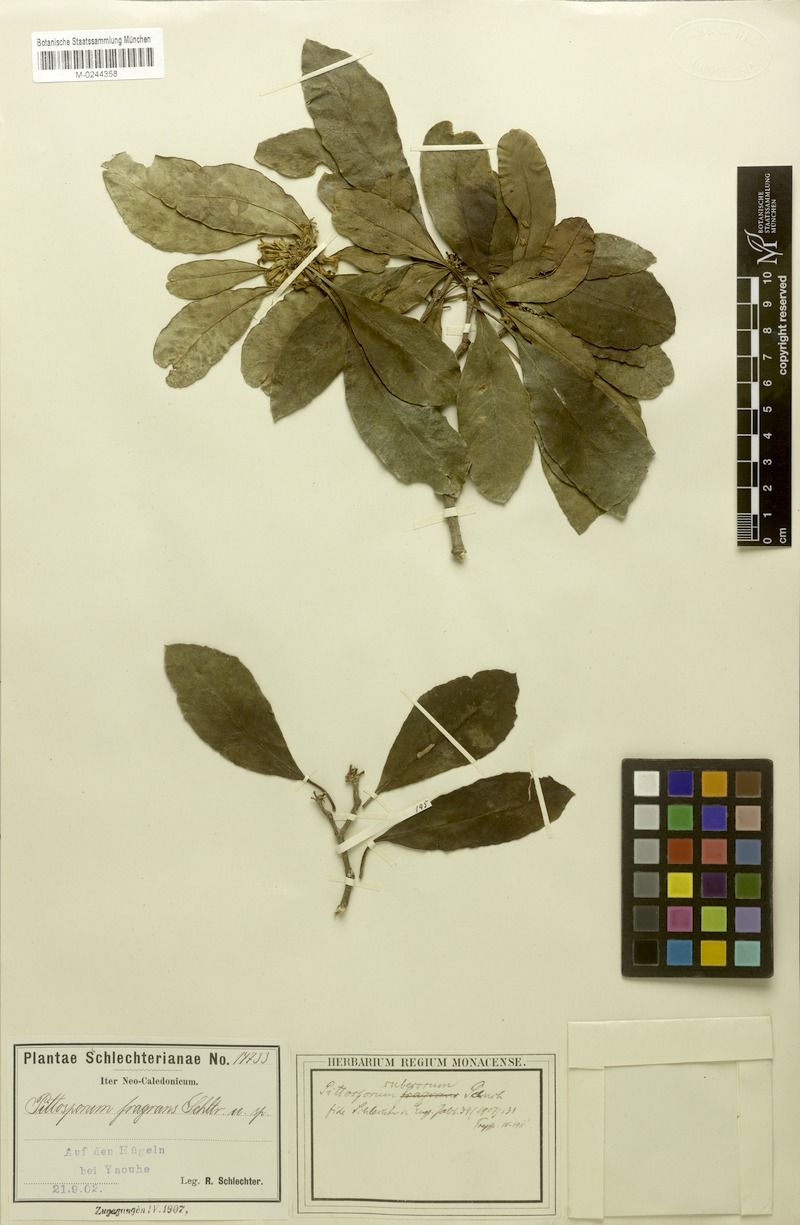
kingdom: Plantae
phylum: Tracheophyta
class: Magnoliopsida
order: Apiales
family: Pittosporaceae
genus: Pittosporum
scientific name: Pittosporum simsonii
